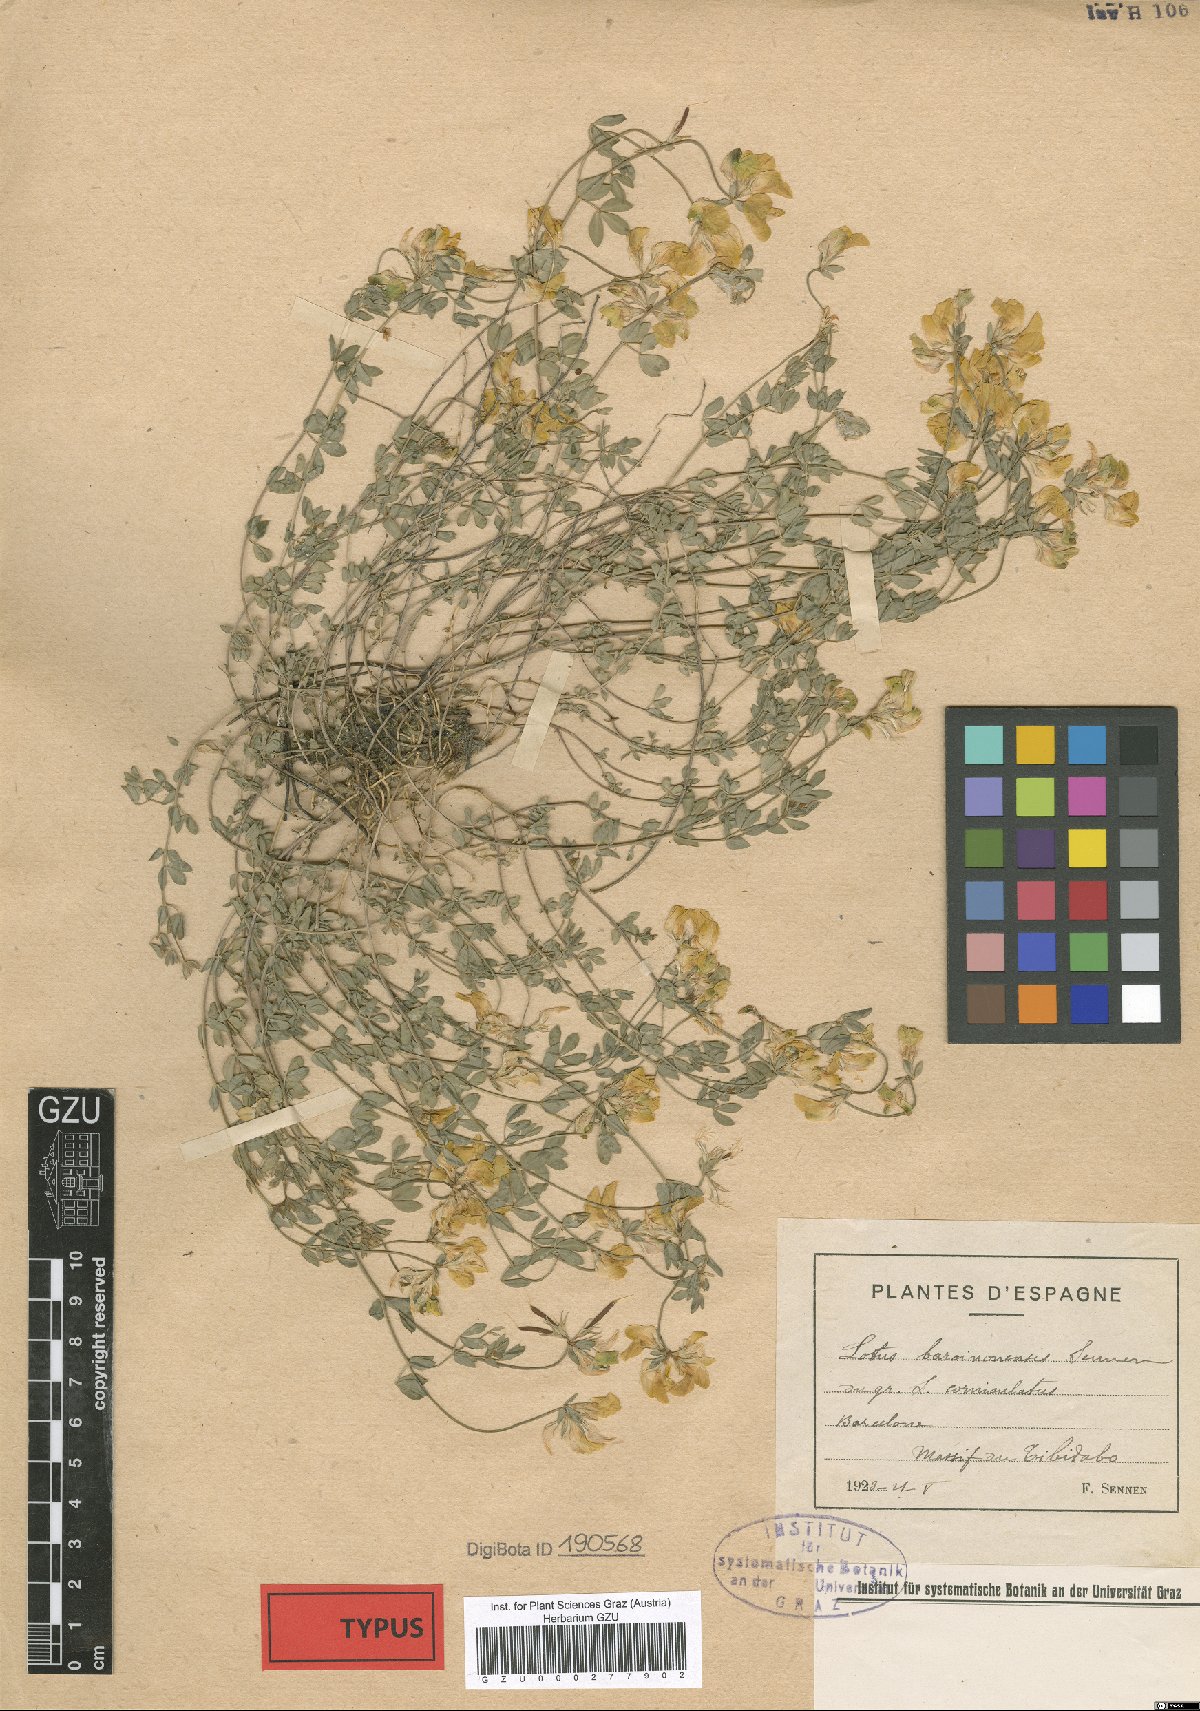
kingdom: Plantae
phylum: Tracheophyta
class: Magnoliopsida
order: Fabales
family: Fabaceae
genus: Lotus
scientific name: Lotus corniculatus
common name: Common bird's-foot-trefoil
